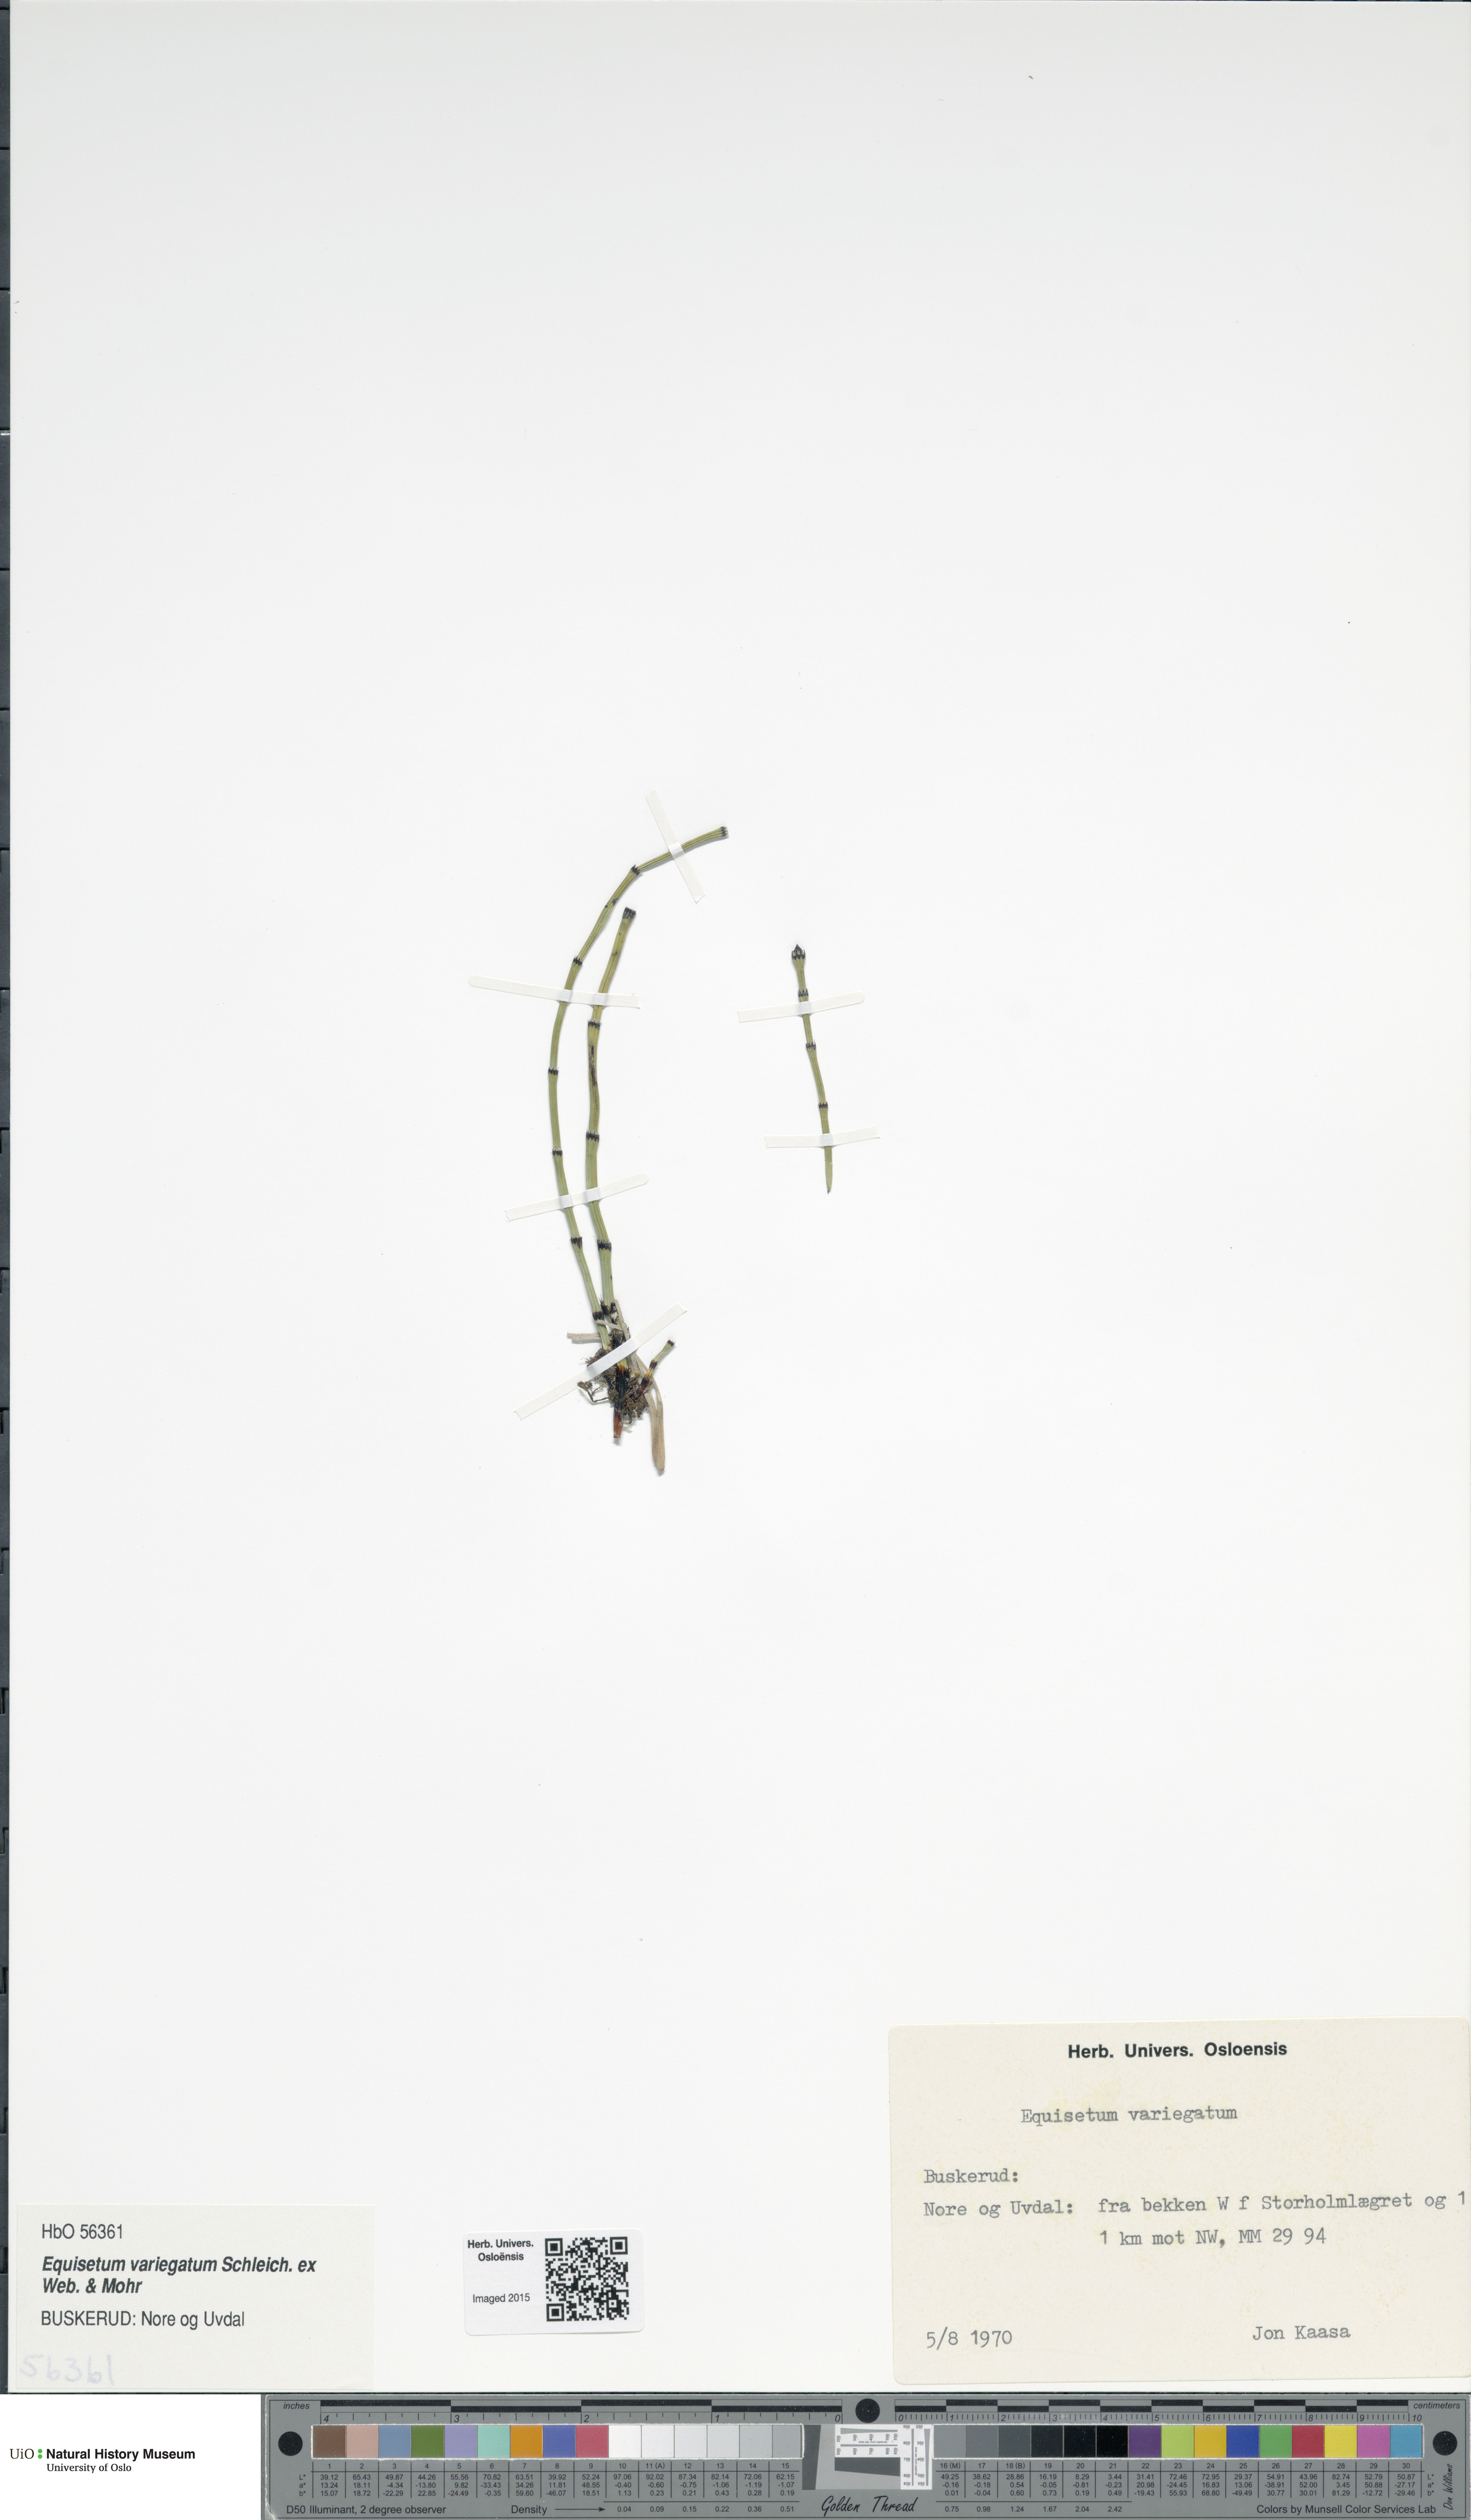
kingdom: Plantae
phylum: Tracheophyta
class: Polypodiopsida
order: Equisetales
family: Equisetaceae
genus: Equisetum
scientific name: Equisetum variegatum
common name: Variegated horsetail
